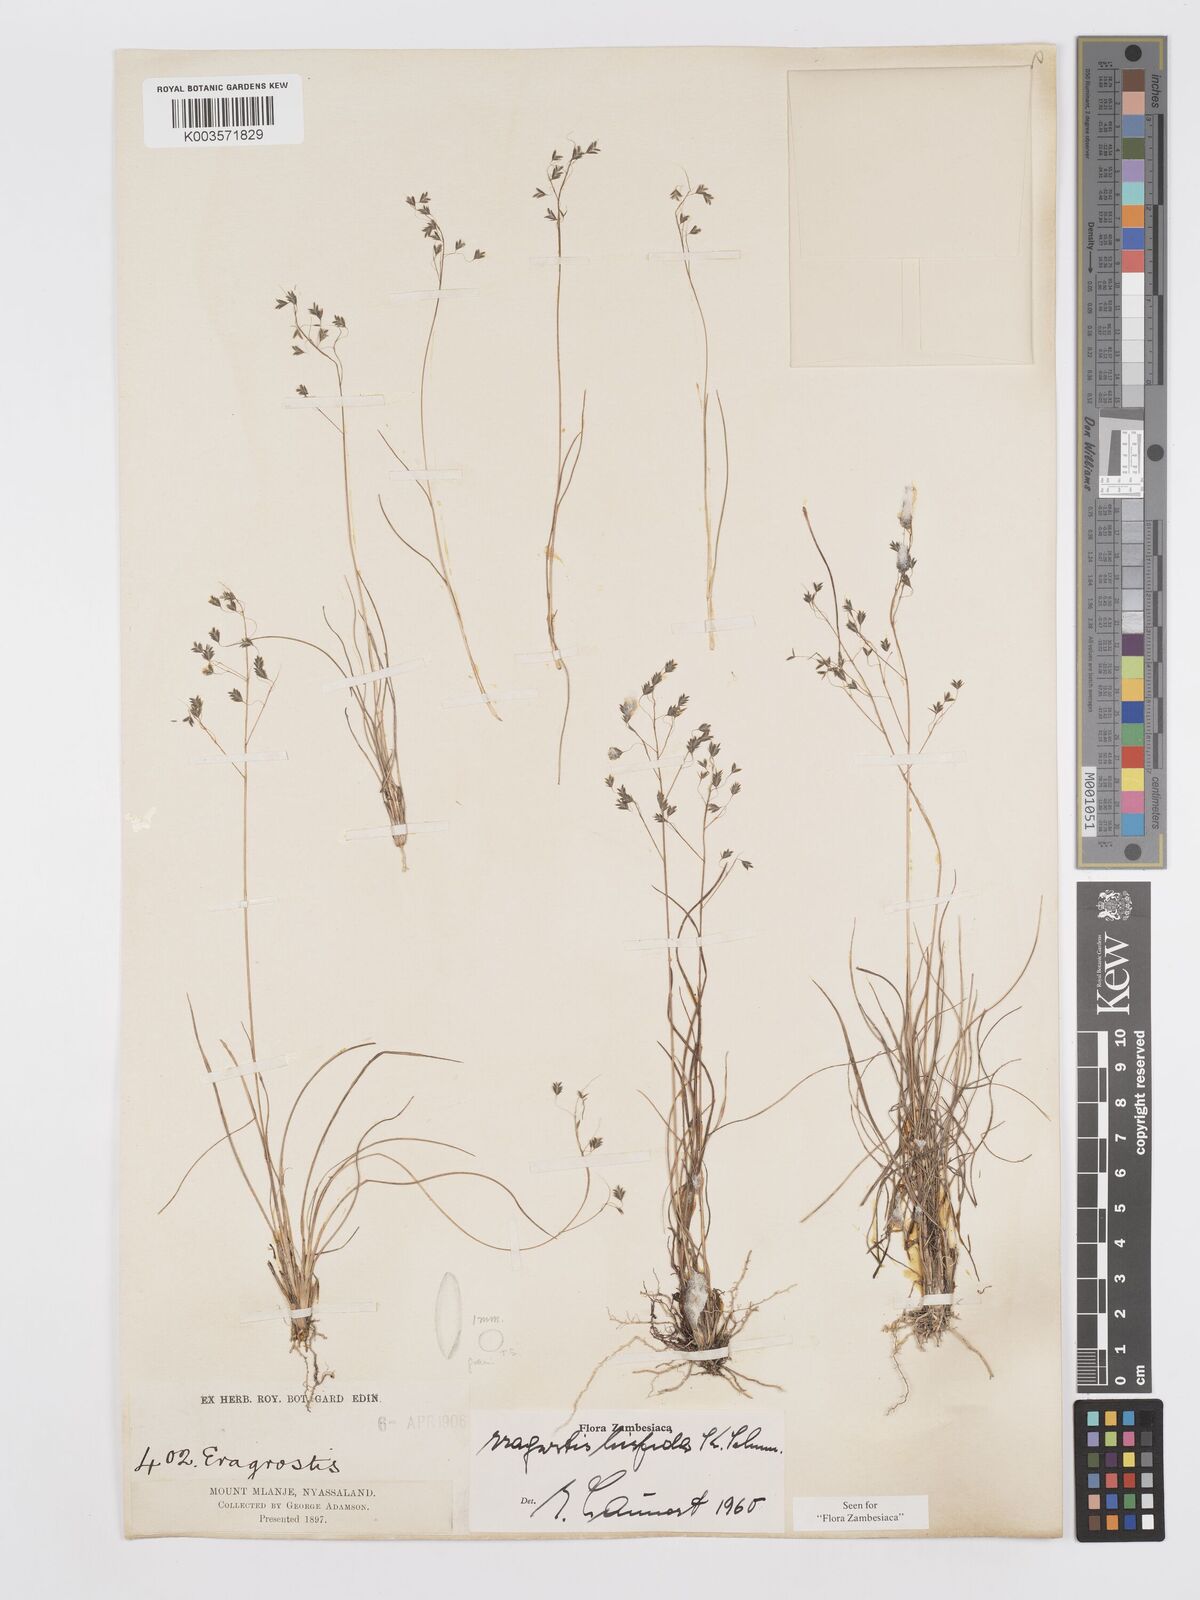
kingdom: Plantae
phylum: Tracheophyta
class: Liliopsida
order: Poales
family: Poaceae
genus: Eragrostis
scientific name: Eragrostis hispida
